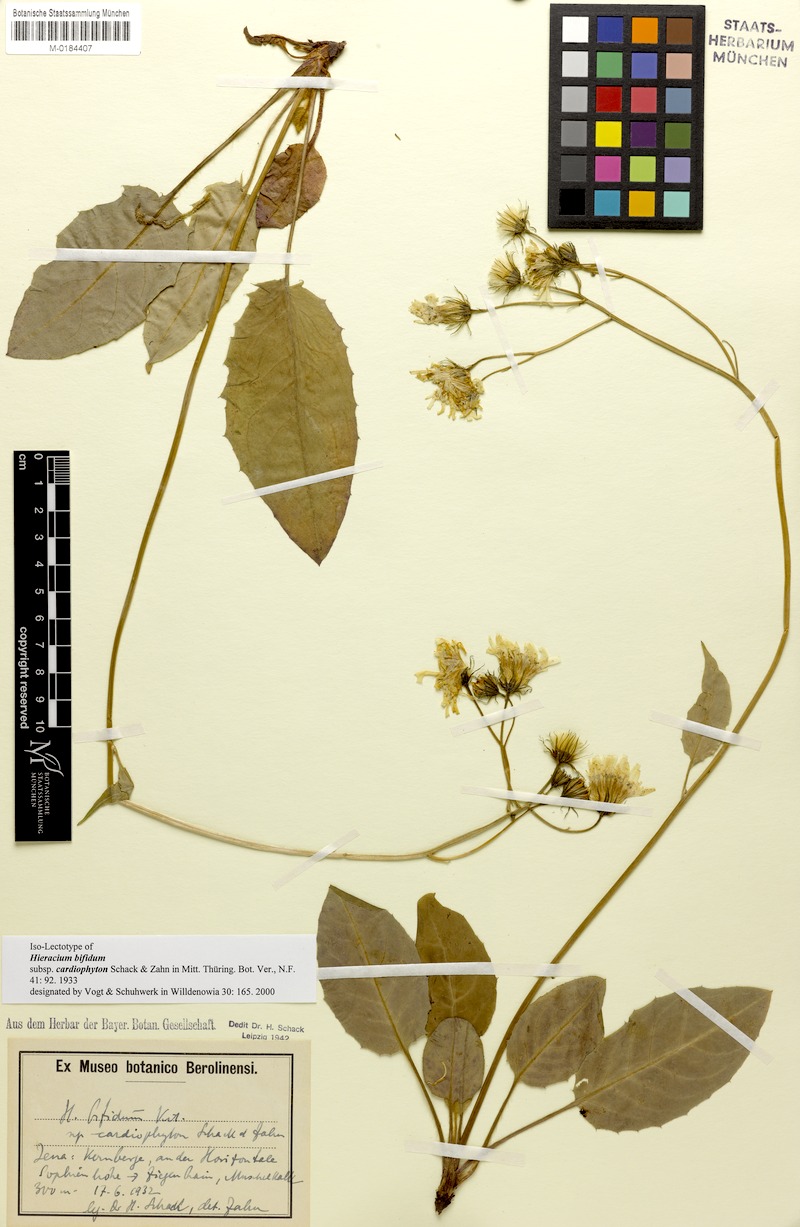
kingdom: Plantae
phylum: Tracheophyta
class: Magnoliopsida
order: Asterales
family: Asteraceae
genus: Hieracium
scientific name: Hieracium bifidum
